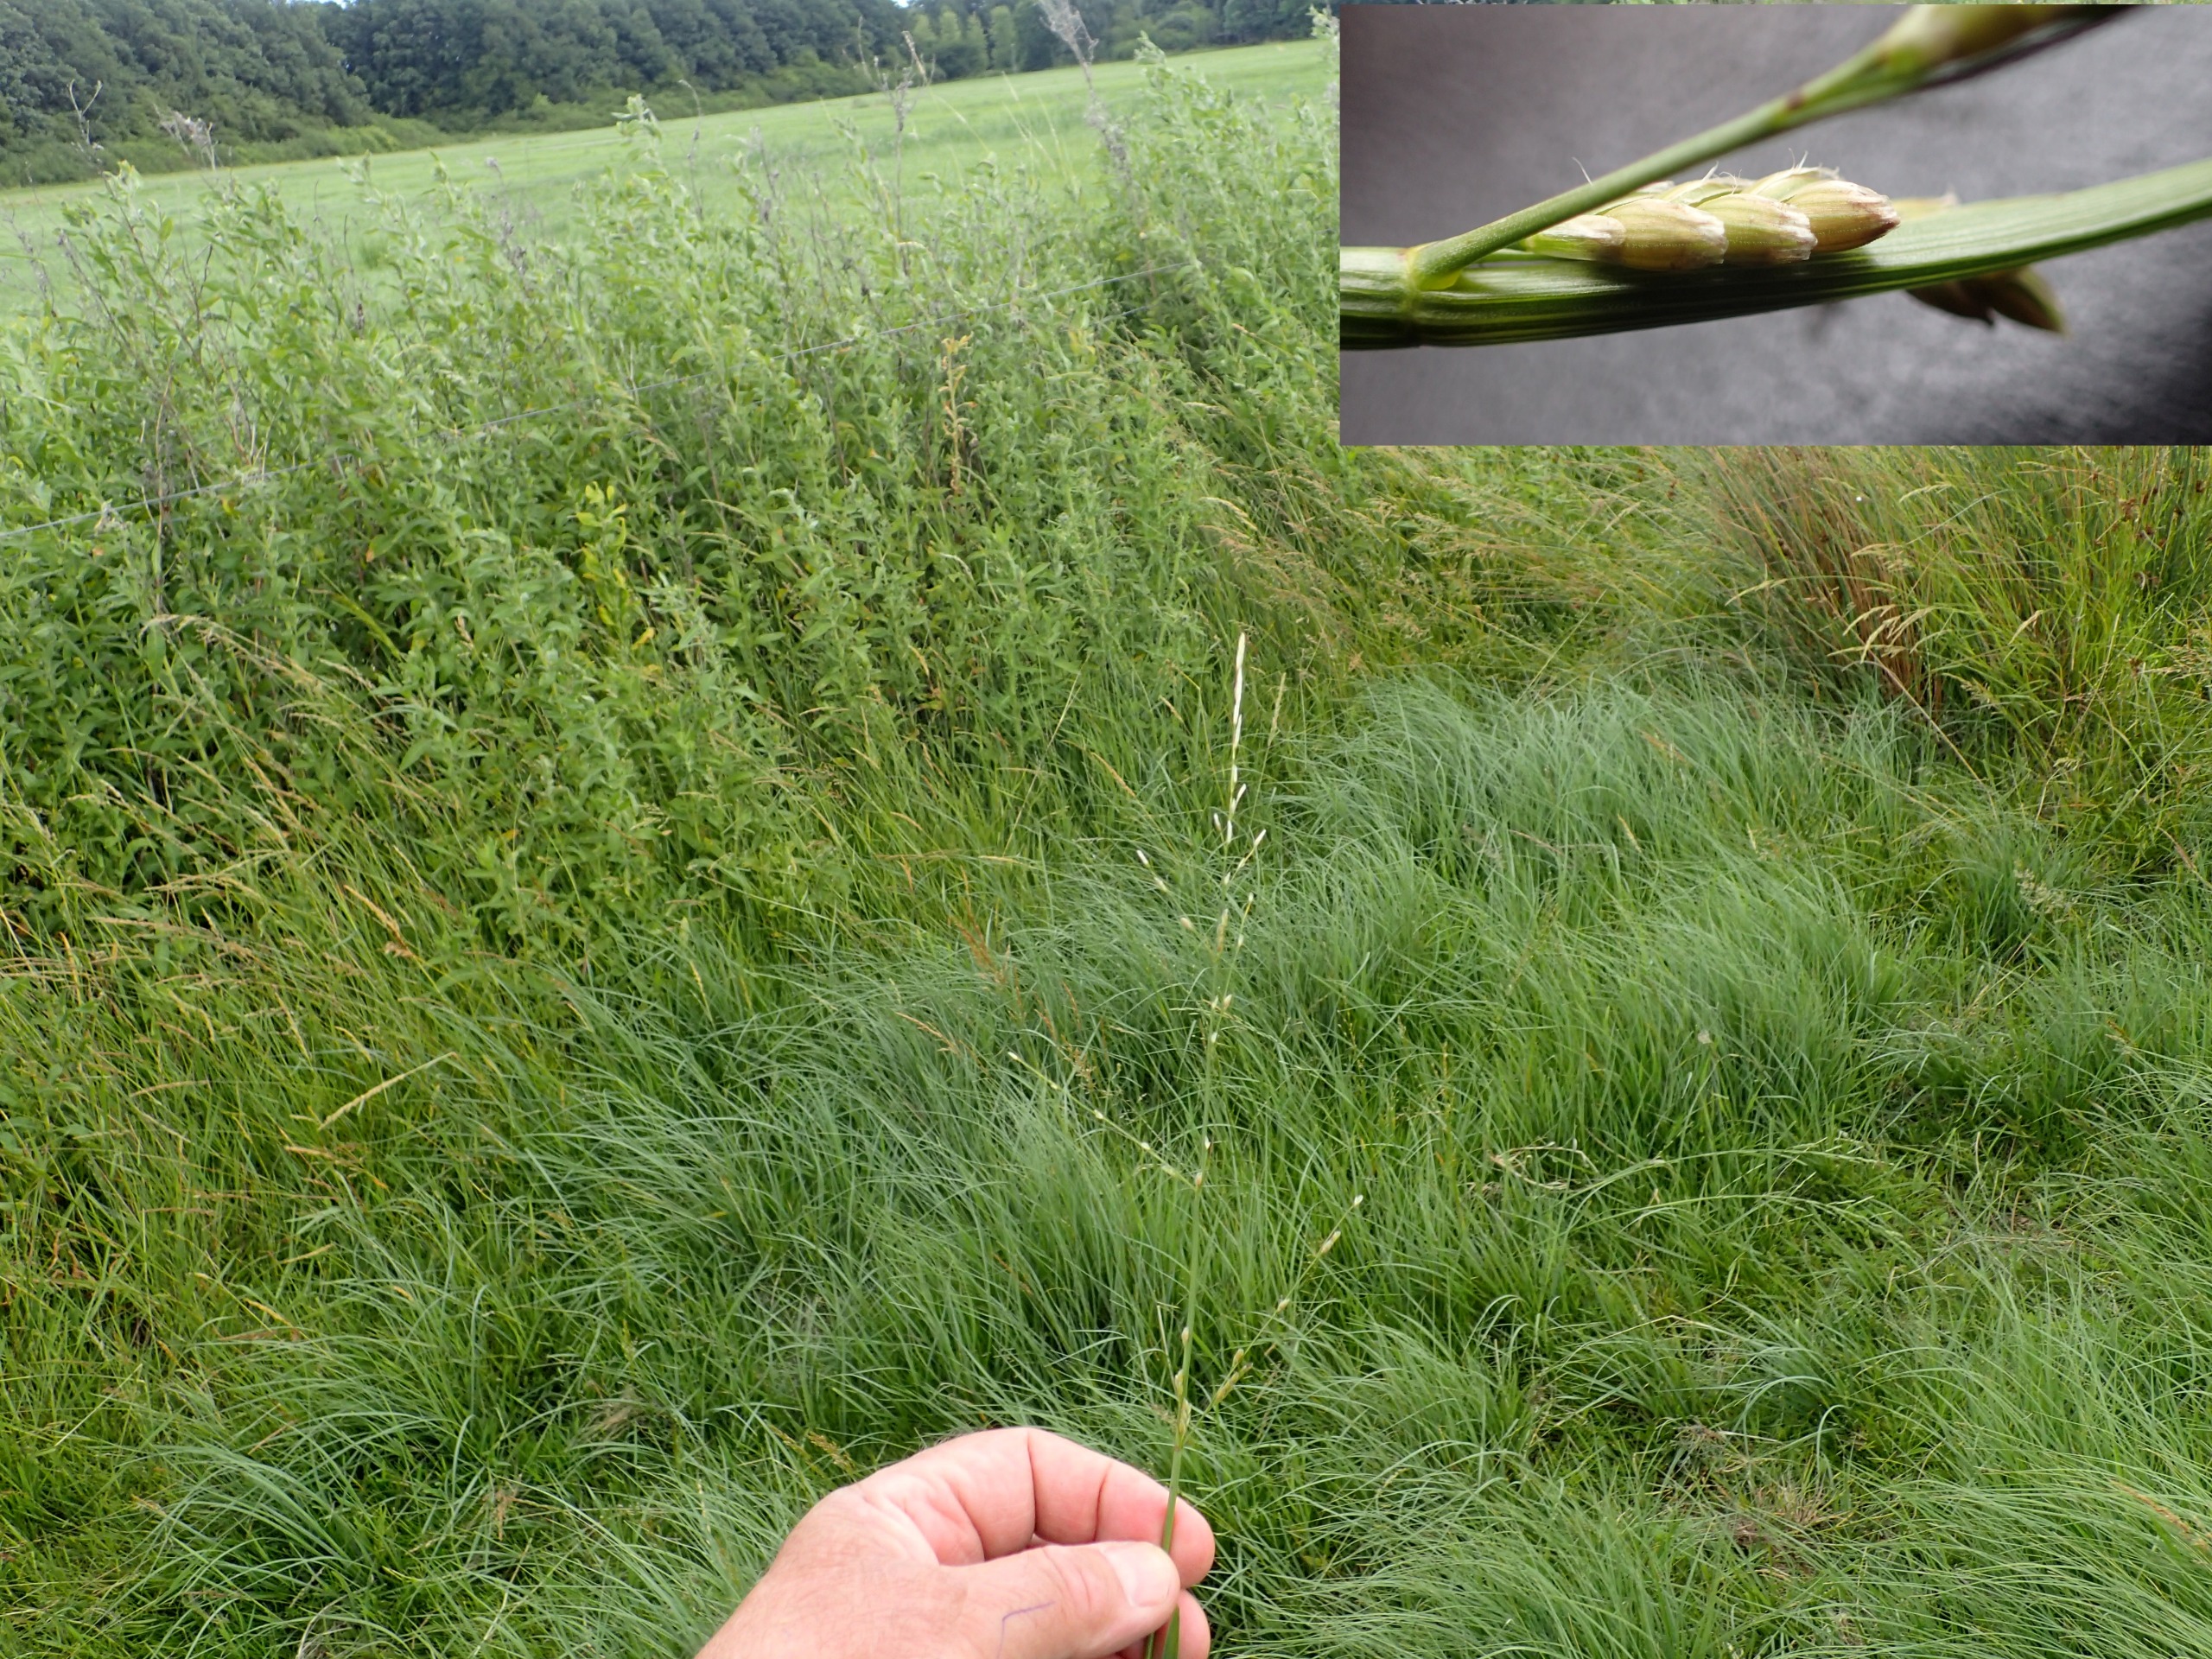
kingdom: Plantae
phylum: Tracheophyta
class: Liliopsida
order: Poales
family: Poaceae
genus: Glyceria
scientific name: Glyceria notata
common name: Butblomstret sødgræs
